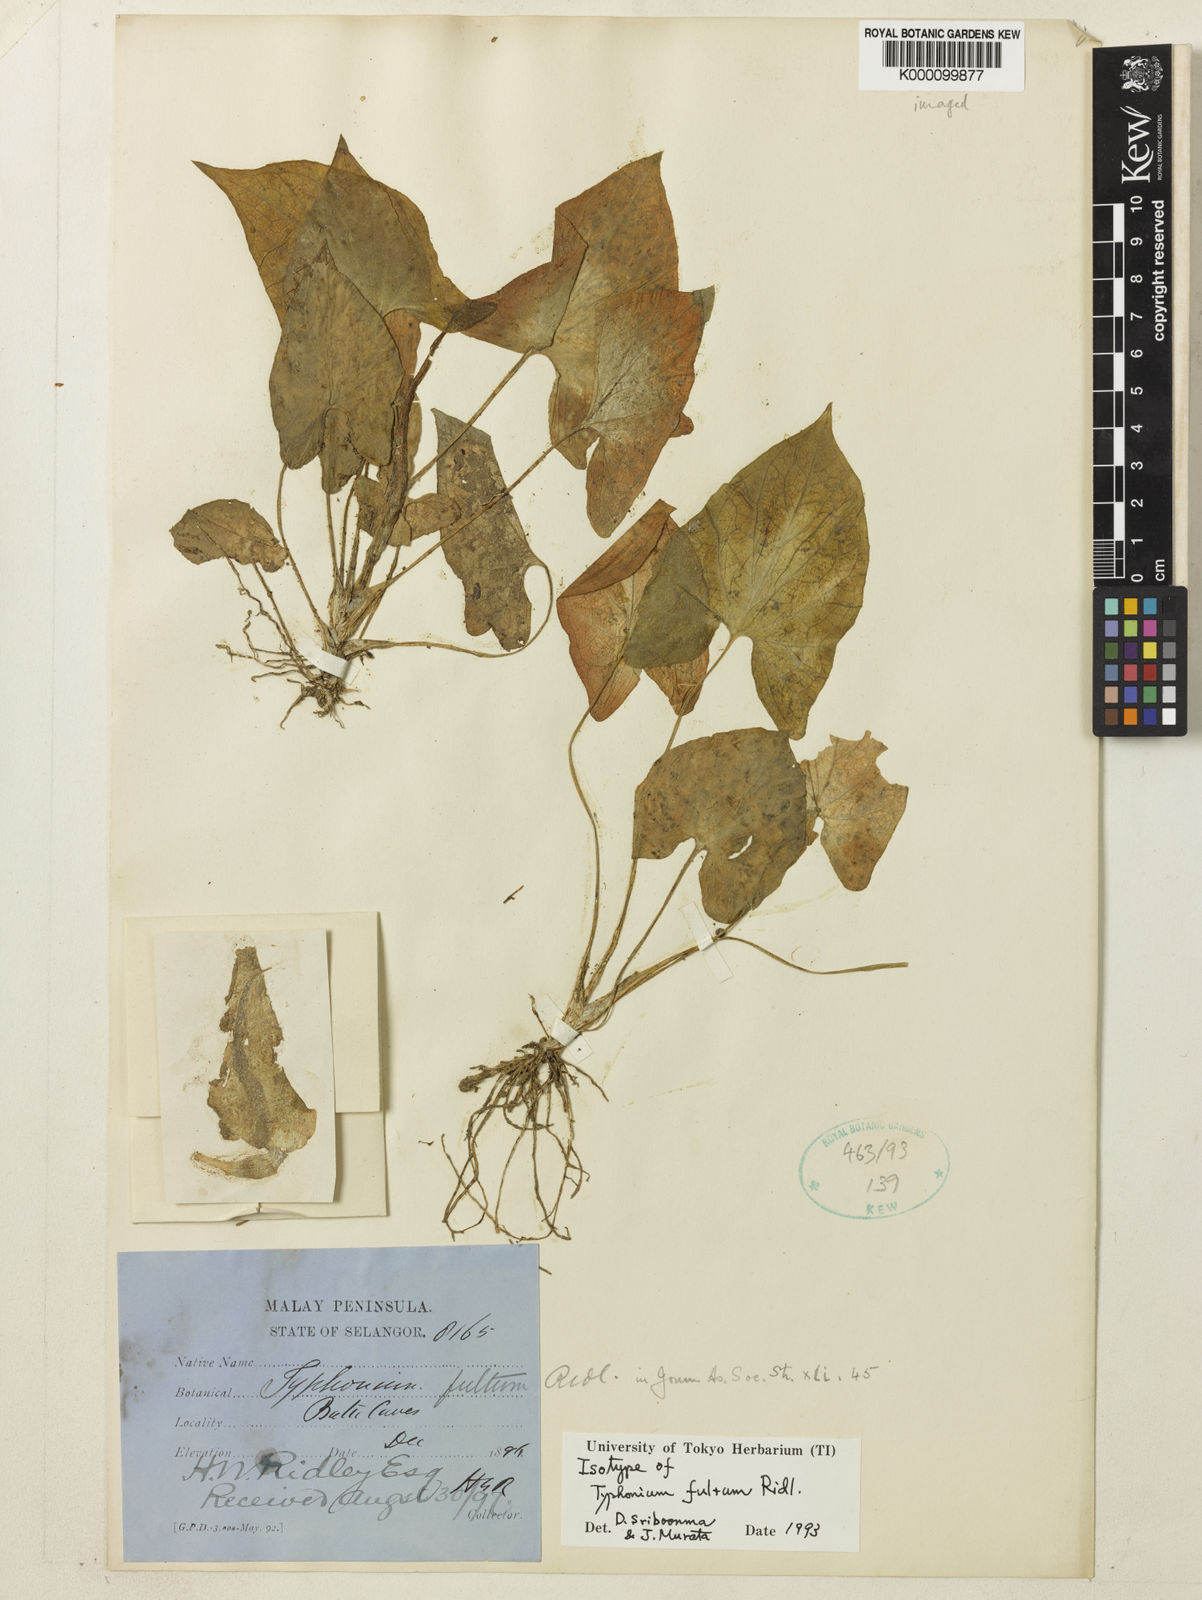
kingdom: Plantae
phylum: Tracheophyta
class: Liliopsida
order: Alismatales
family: Araceae
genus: Typhonium
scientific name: Typhonium fultum
